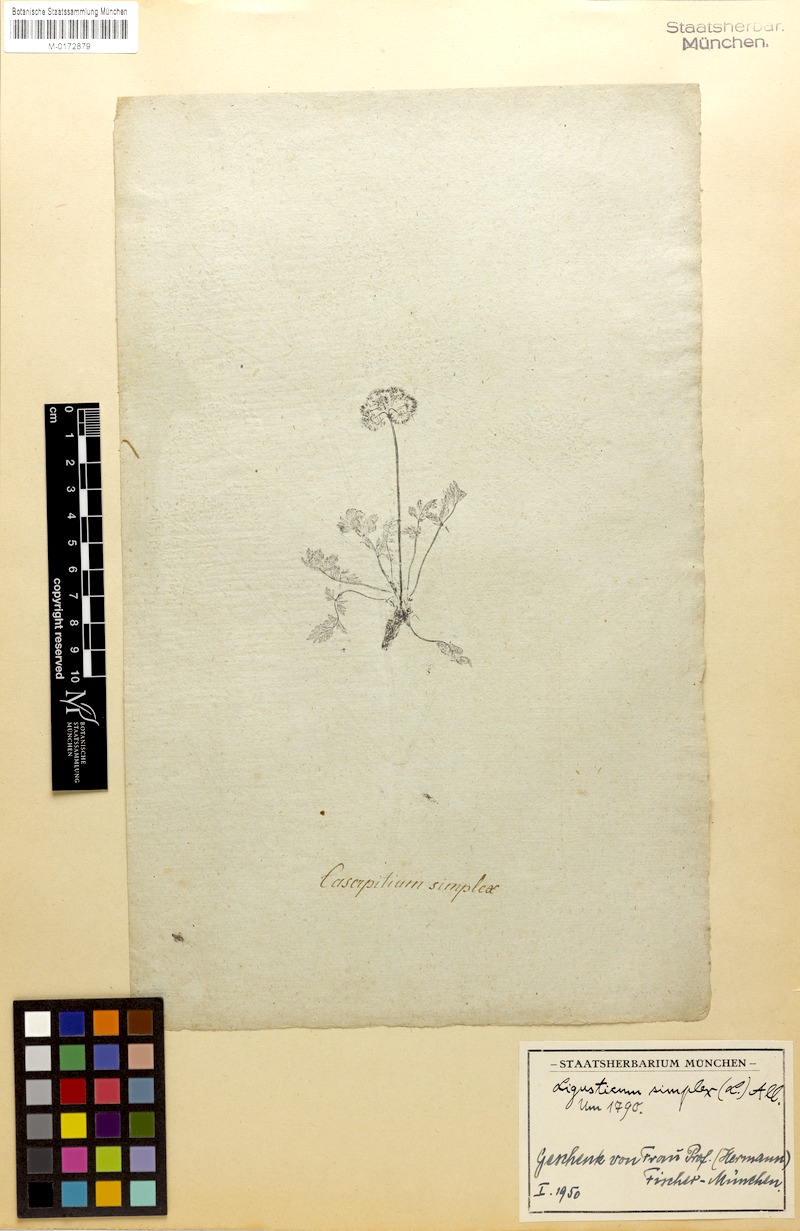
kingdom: Plantae
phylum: Tracheophyta
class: Magnoliopsida
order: Apiales
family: Apiaceae
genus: Pachypleurum
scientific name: Pachypleurum mutellinoides
